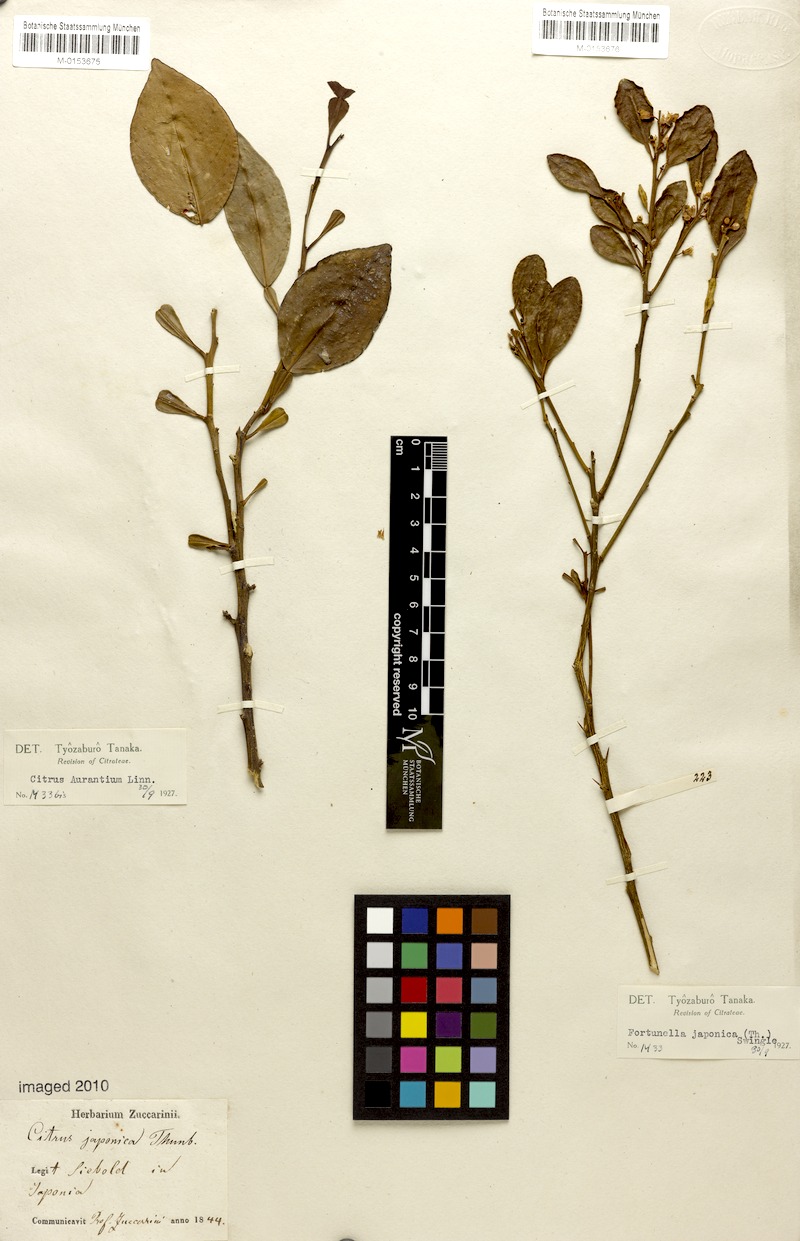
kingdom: Plantae
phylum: Tracheophyta
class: Magnoliopsida
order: Sapindales
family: Rutaceae
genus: Citrus
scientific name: Citrus aurantium
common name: Sour orange
